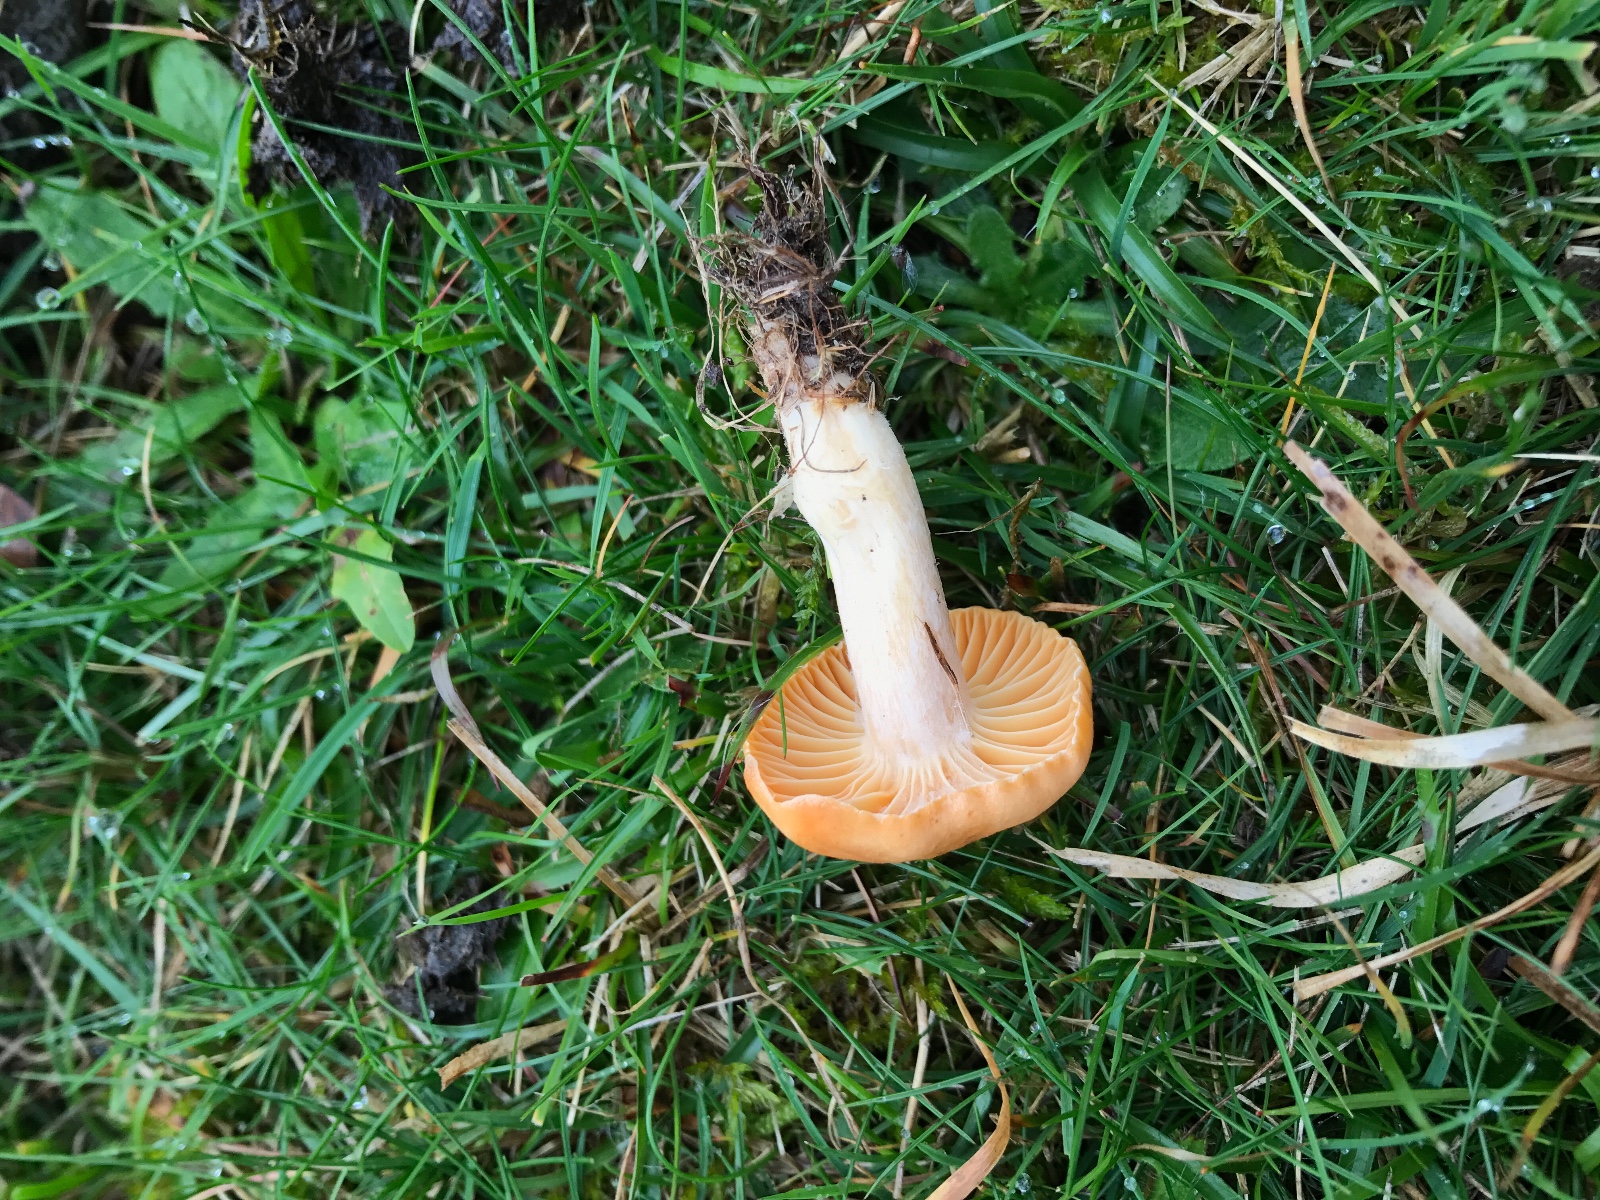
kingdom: Fungi
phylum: Basidiomycota
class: Agaricomycetes
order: Agaricales
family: Hygrophoraceae
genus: Cuphophyllus
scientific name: Cuphophyllus pratensis
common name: eng-vokshat
